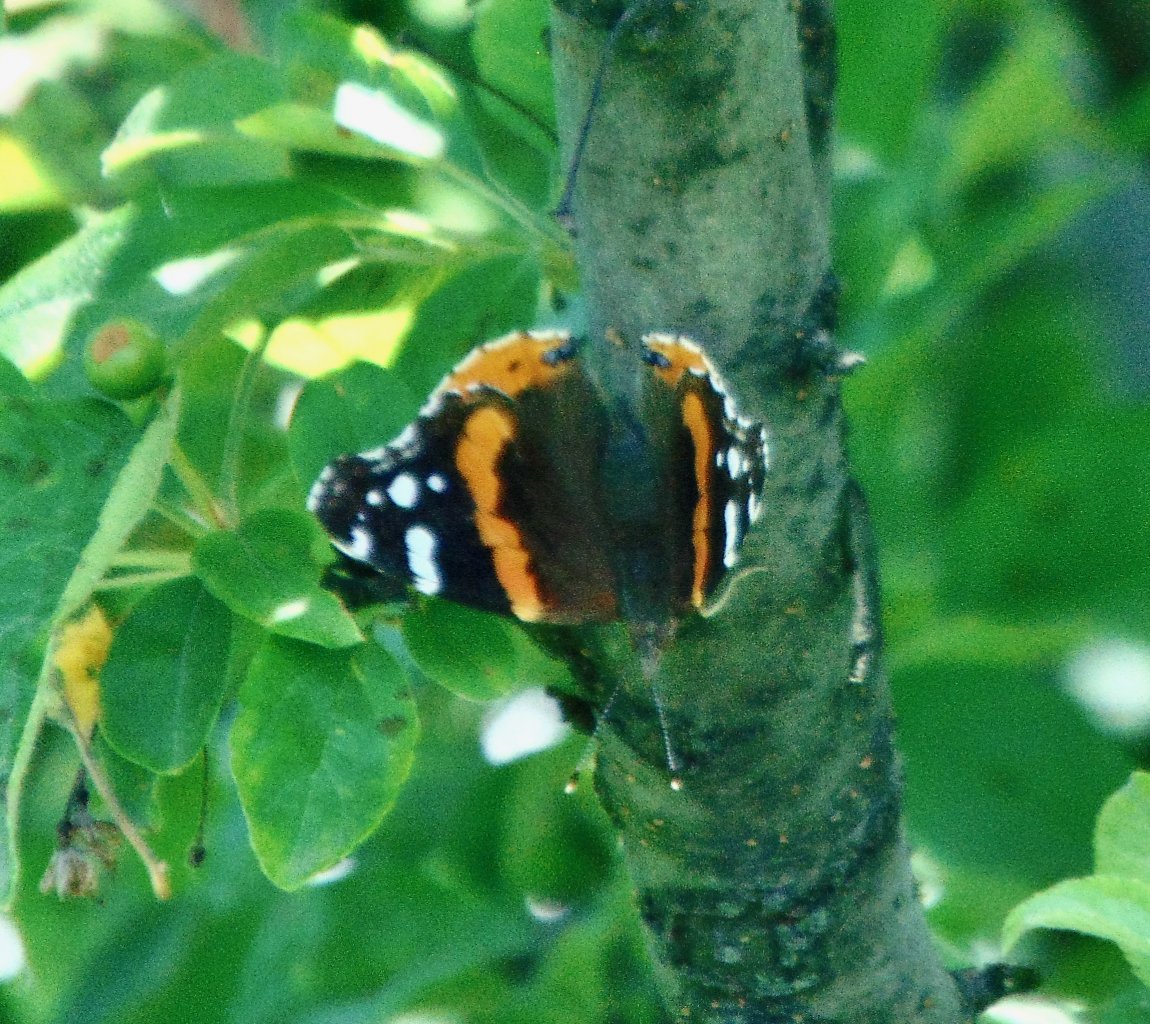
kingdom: Animalia
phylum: Arthropoda
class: Insecta
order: Lepidoptera
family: Nymphalidae
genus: Vanessa
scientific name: Vanessa atalanta
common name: Red Admiral
